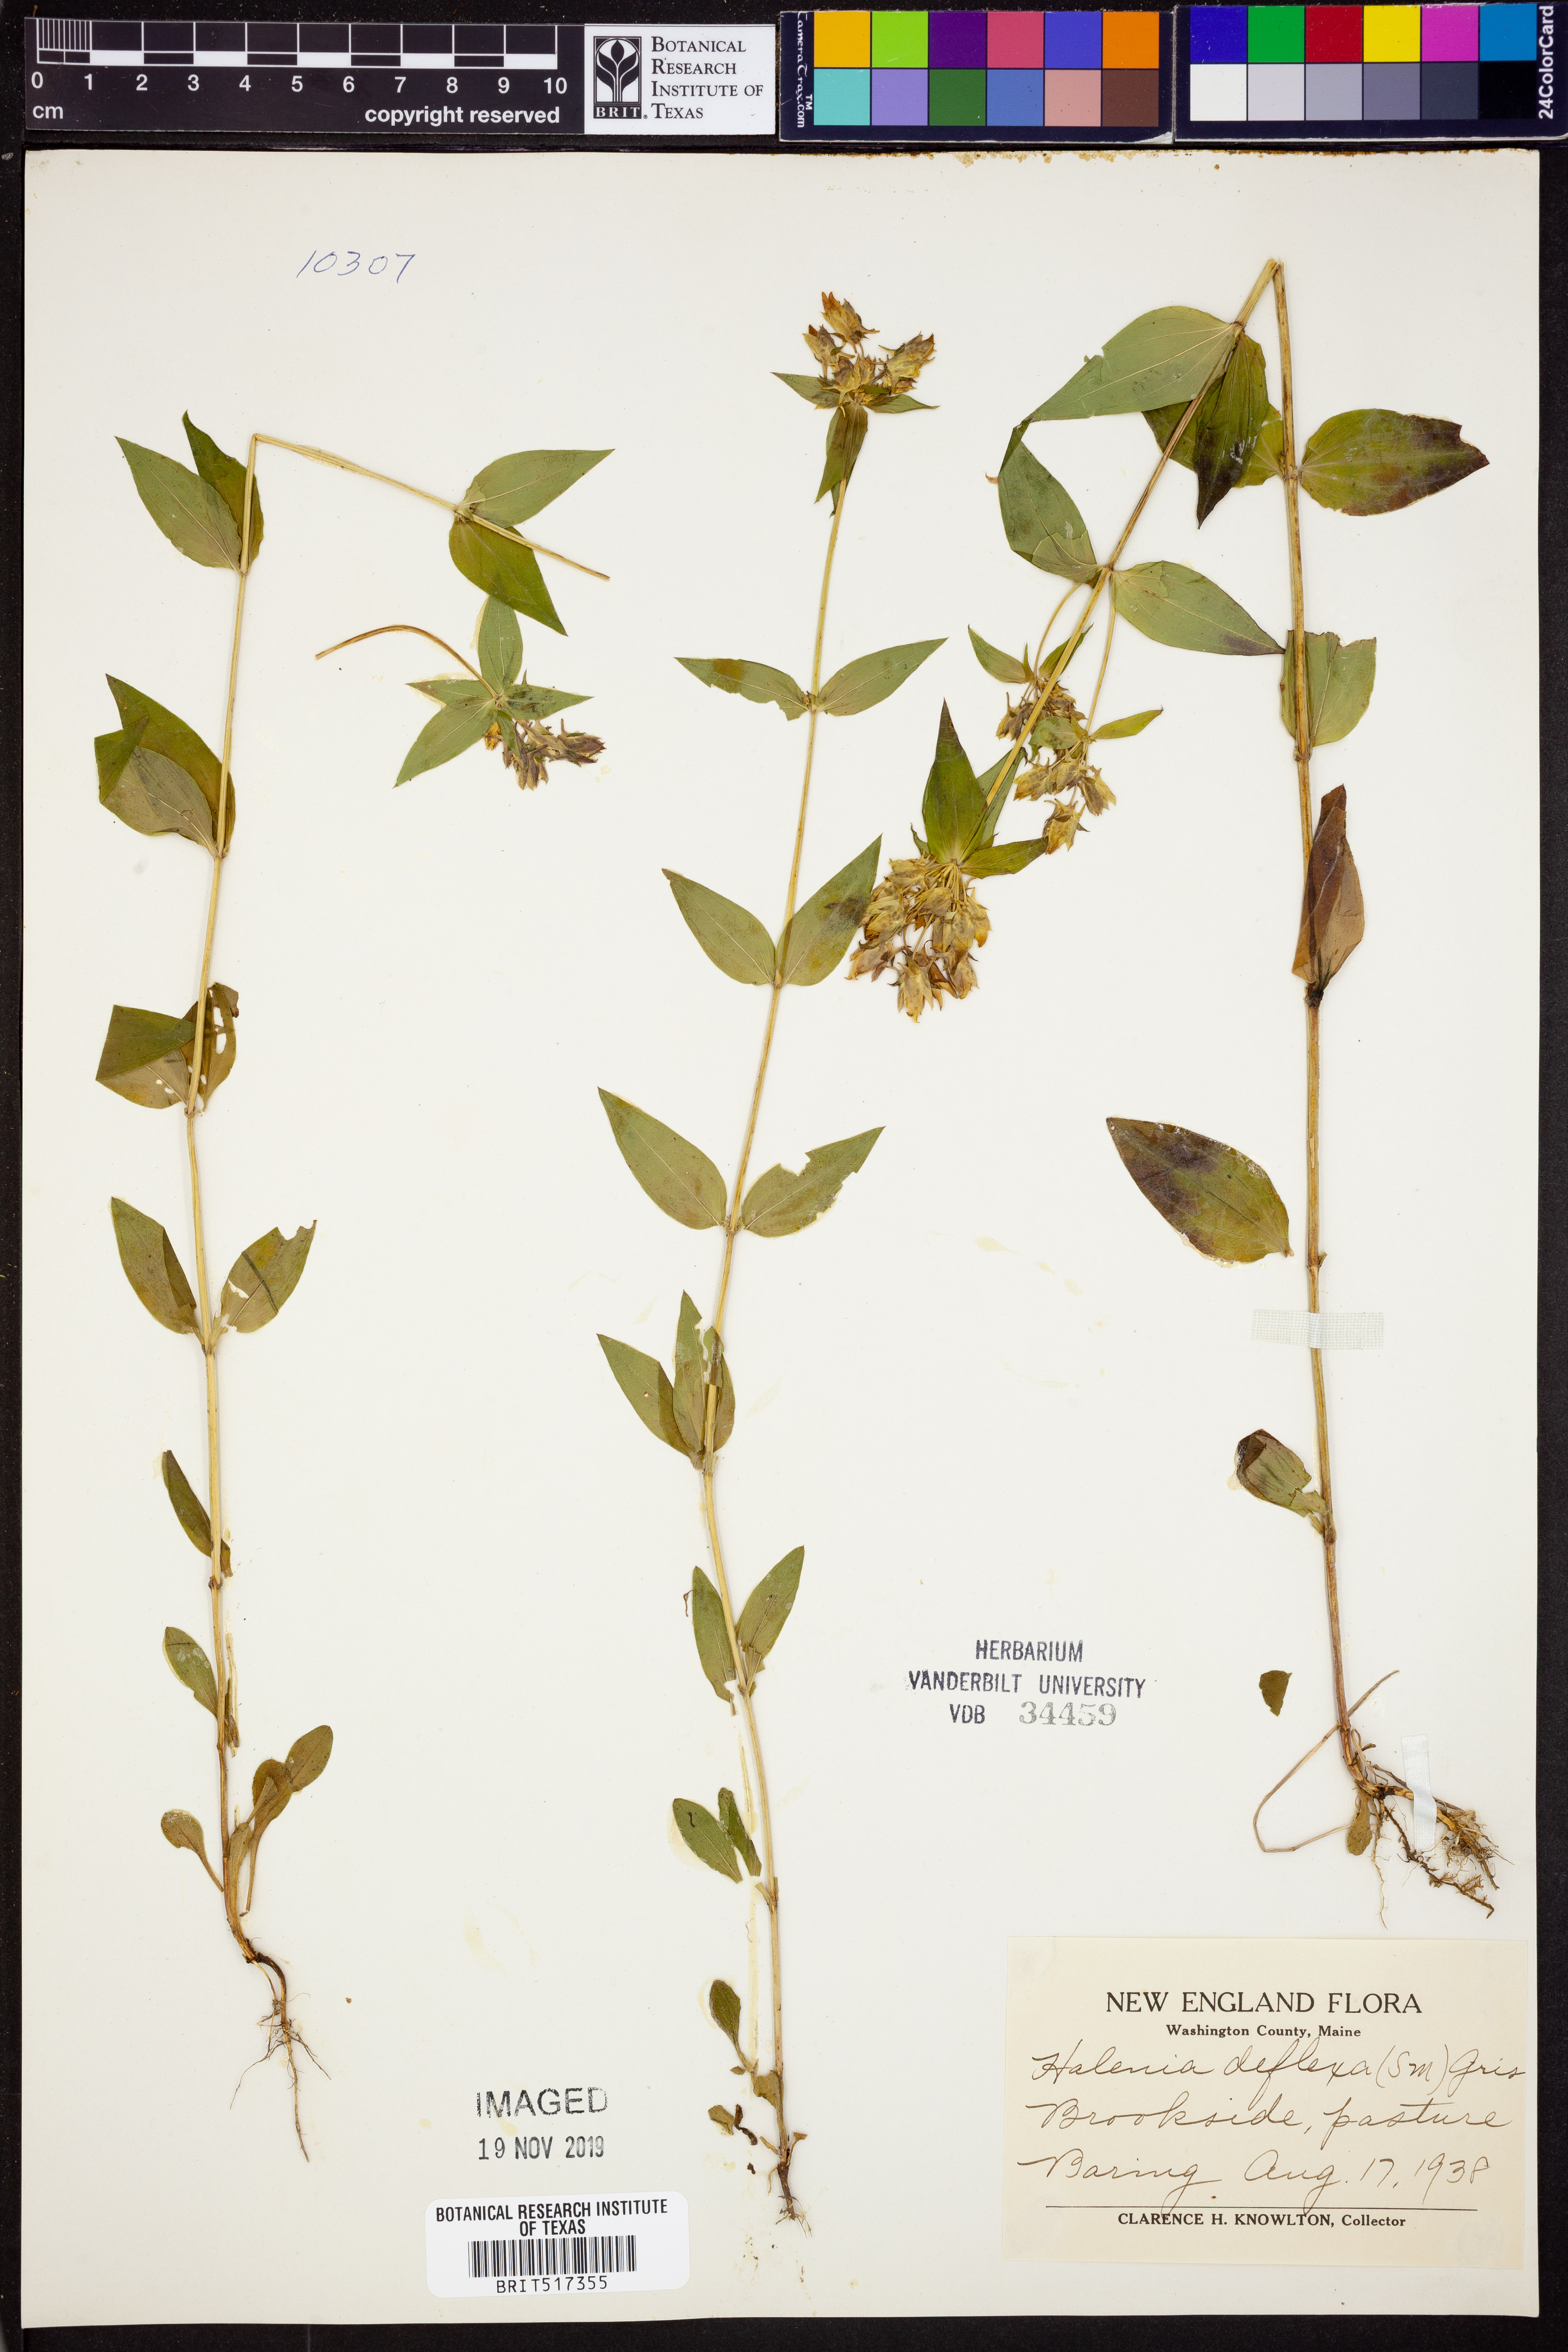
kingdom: Plantae
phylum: Tracheophyta
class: Magnoliopsida
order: Gentianales
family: Gentianaceae
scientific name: Gentianaceae
